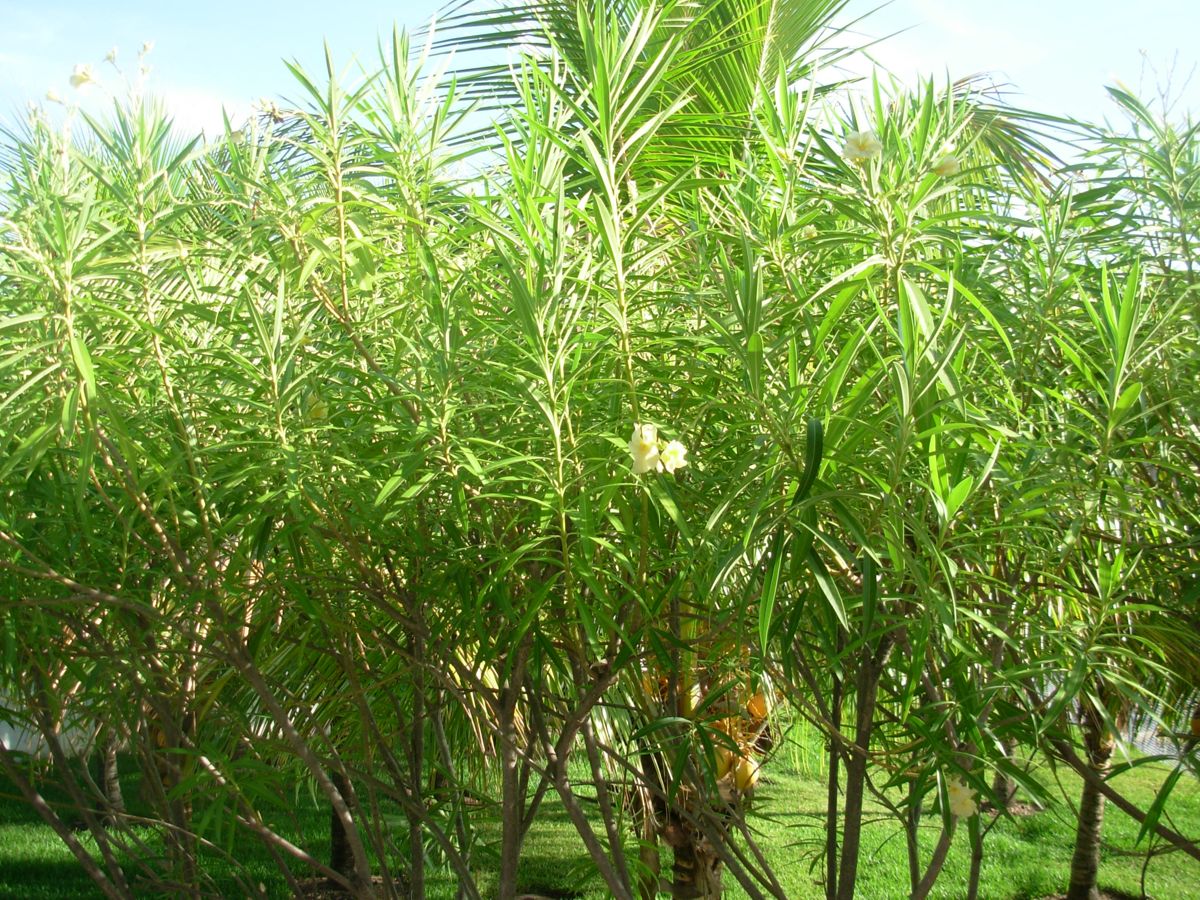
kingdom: Plantae
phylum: Tracheophyta
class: Magnoliopsida
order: Gentianales
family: Apocynaceae
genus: Nerium
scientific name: Nerium oleander
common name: Oleander
